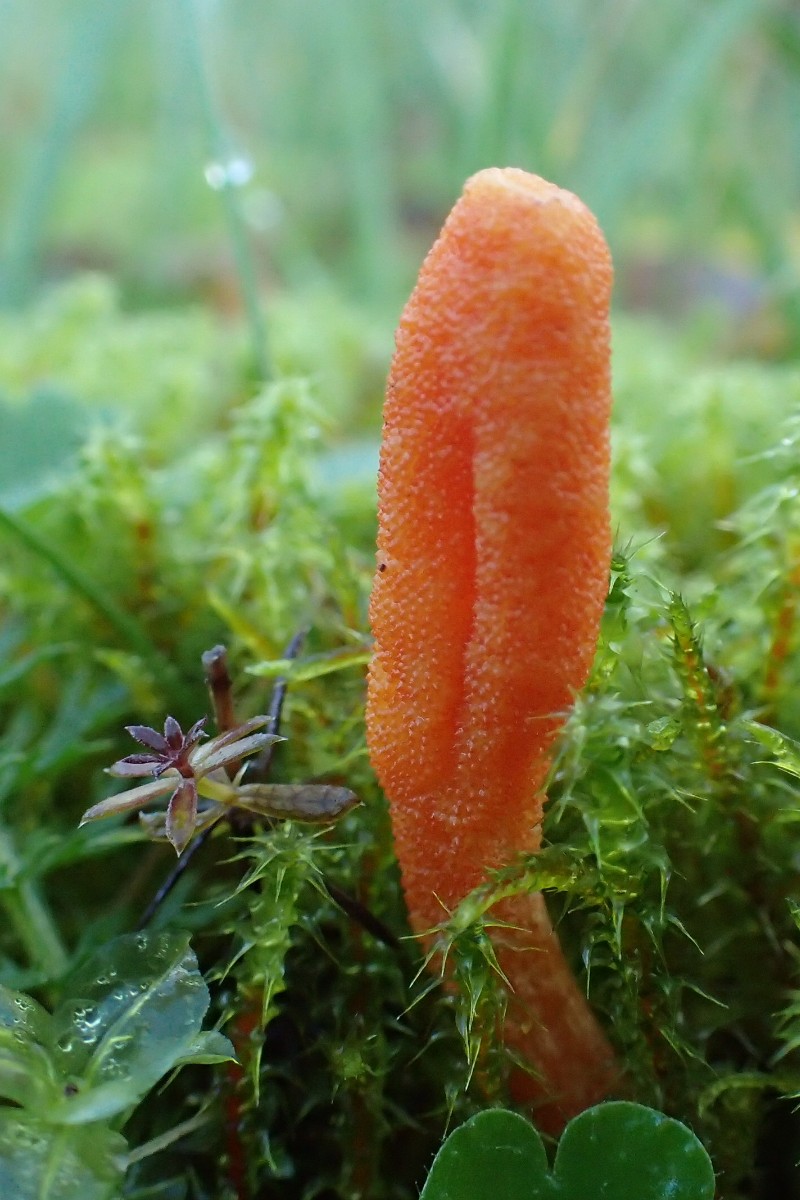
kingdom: Fungi
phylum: Ascomycota
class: Sordariomycetes
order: Hypocreales
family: Cordycipitaceae
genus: Cordyceps
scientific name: Cordyceps militaris
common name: puppe-snyltekølle
